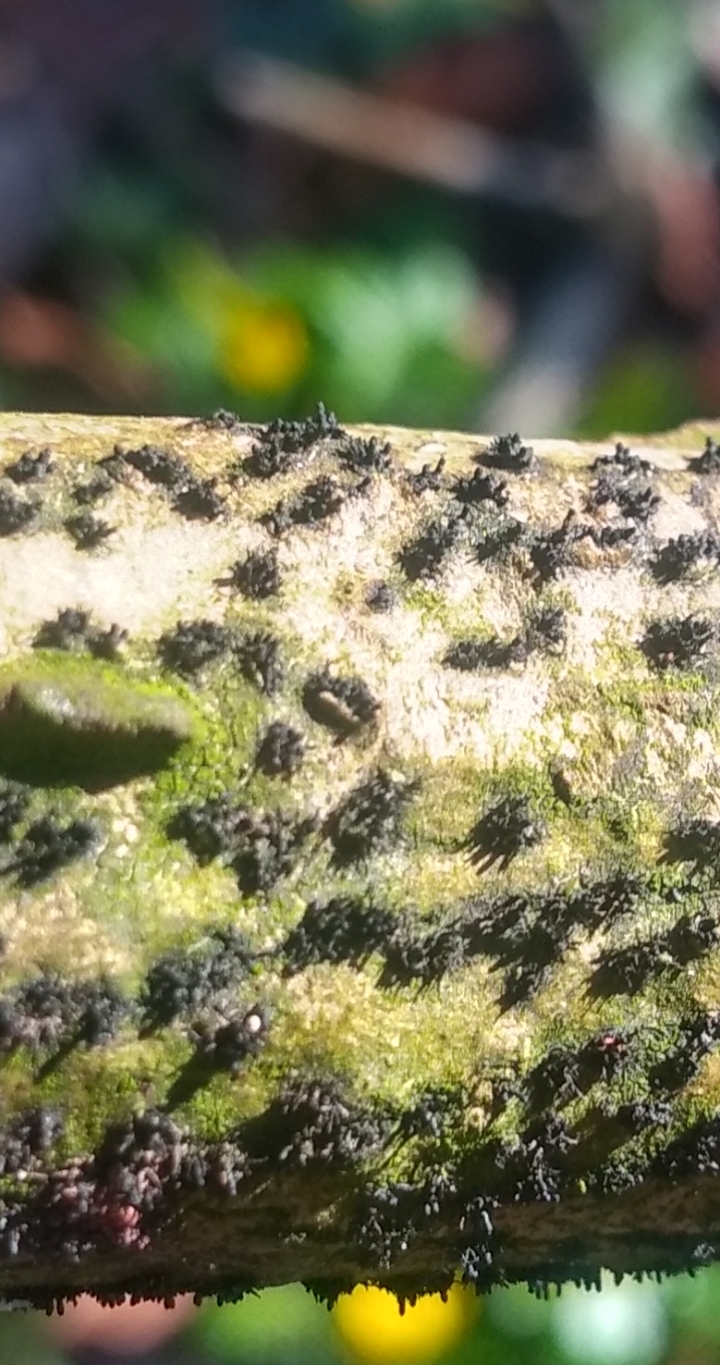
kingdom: Fungi
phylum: Ascomycota
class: Sordariomycetes
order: Xylariales
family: Diatrypaceae
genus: Peroneutypa
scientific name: Peroneutypa scoparia
